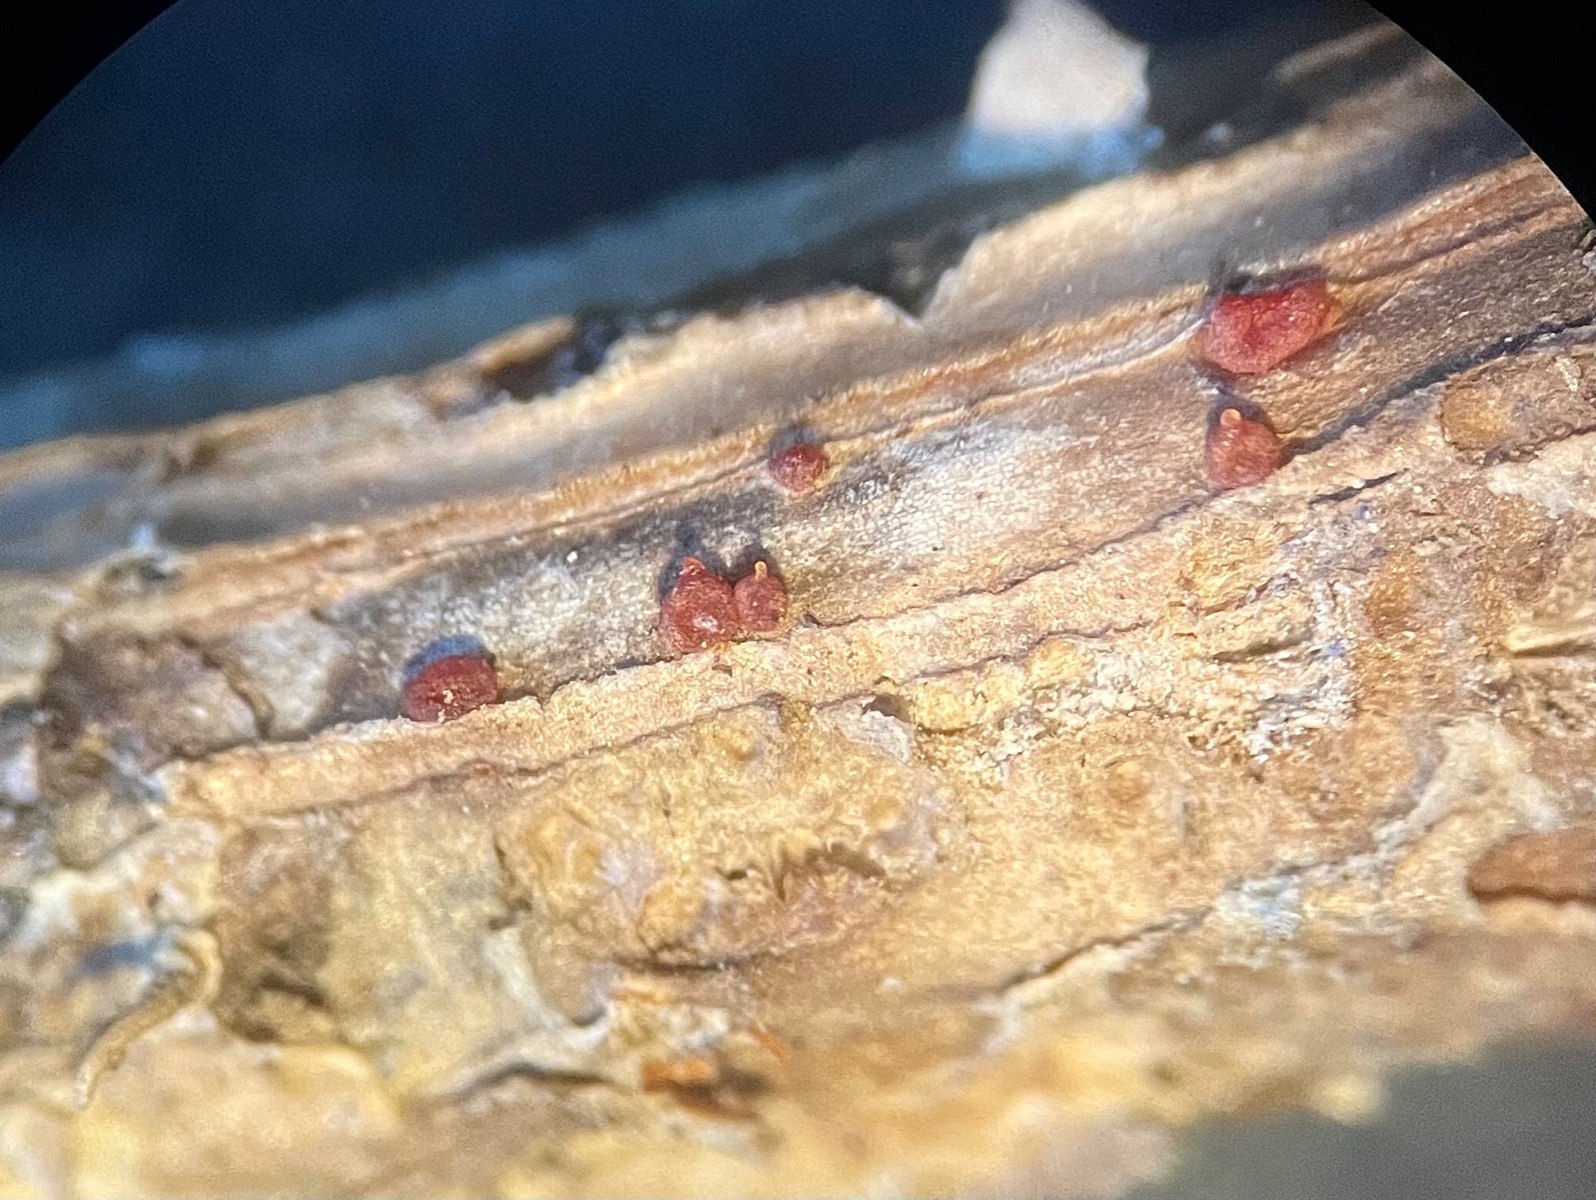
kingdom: Fungi
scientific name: Fungi
